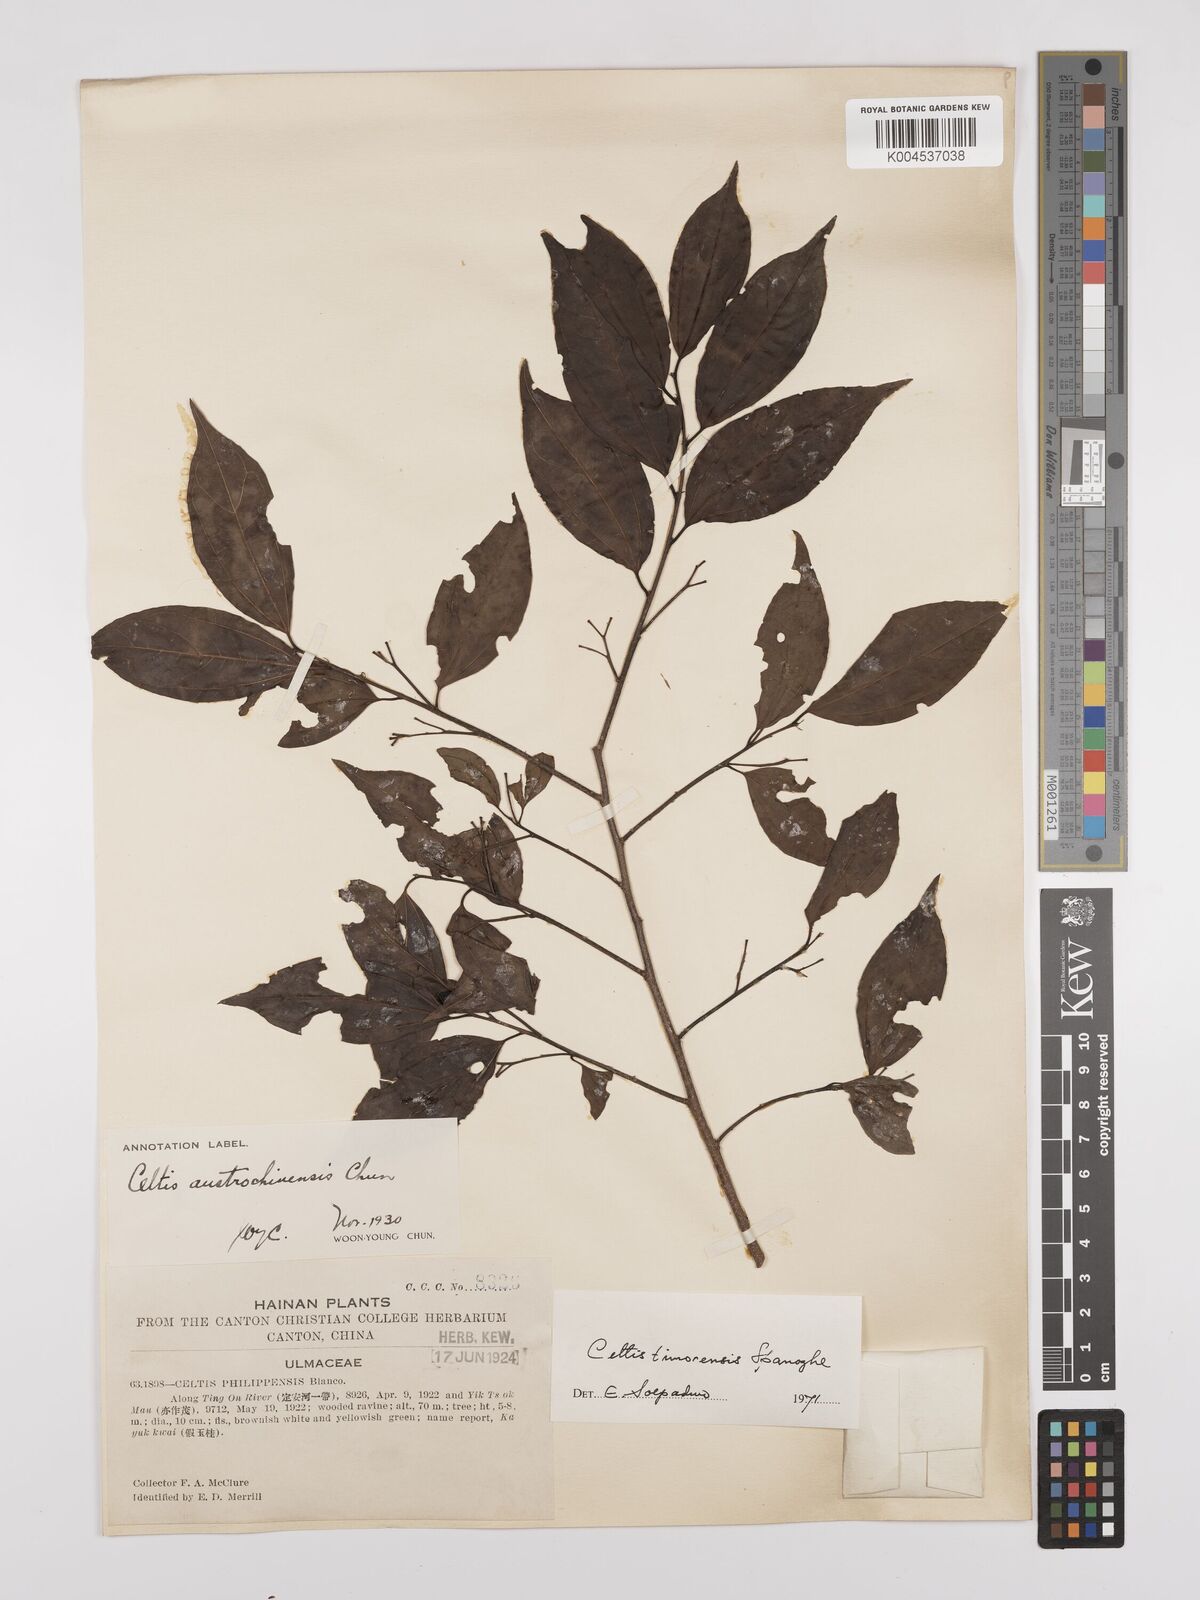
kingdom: Plantae
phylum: Tracheophyta
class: Magnoliopsida
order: Rosales
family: Cannabaceae
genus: Celtis
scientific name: Celtis timorensis
